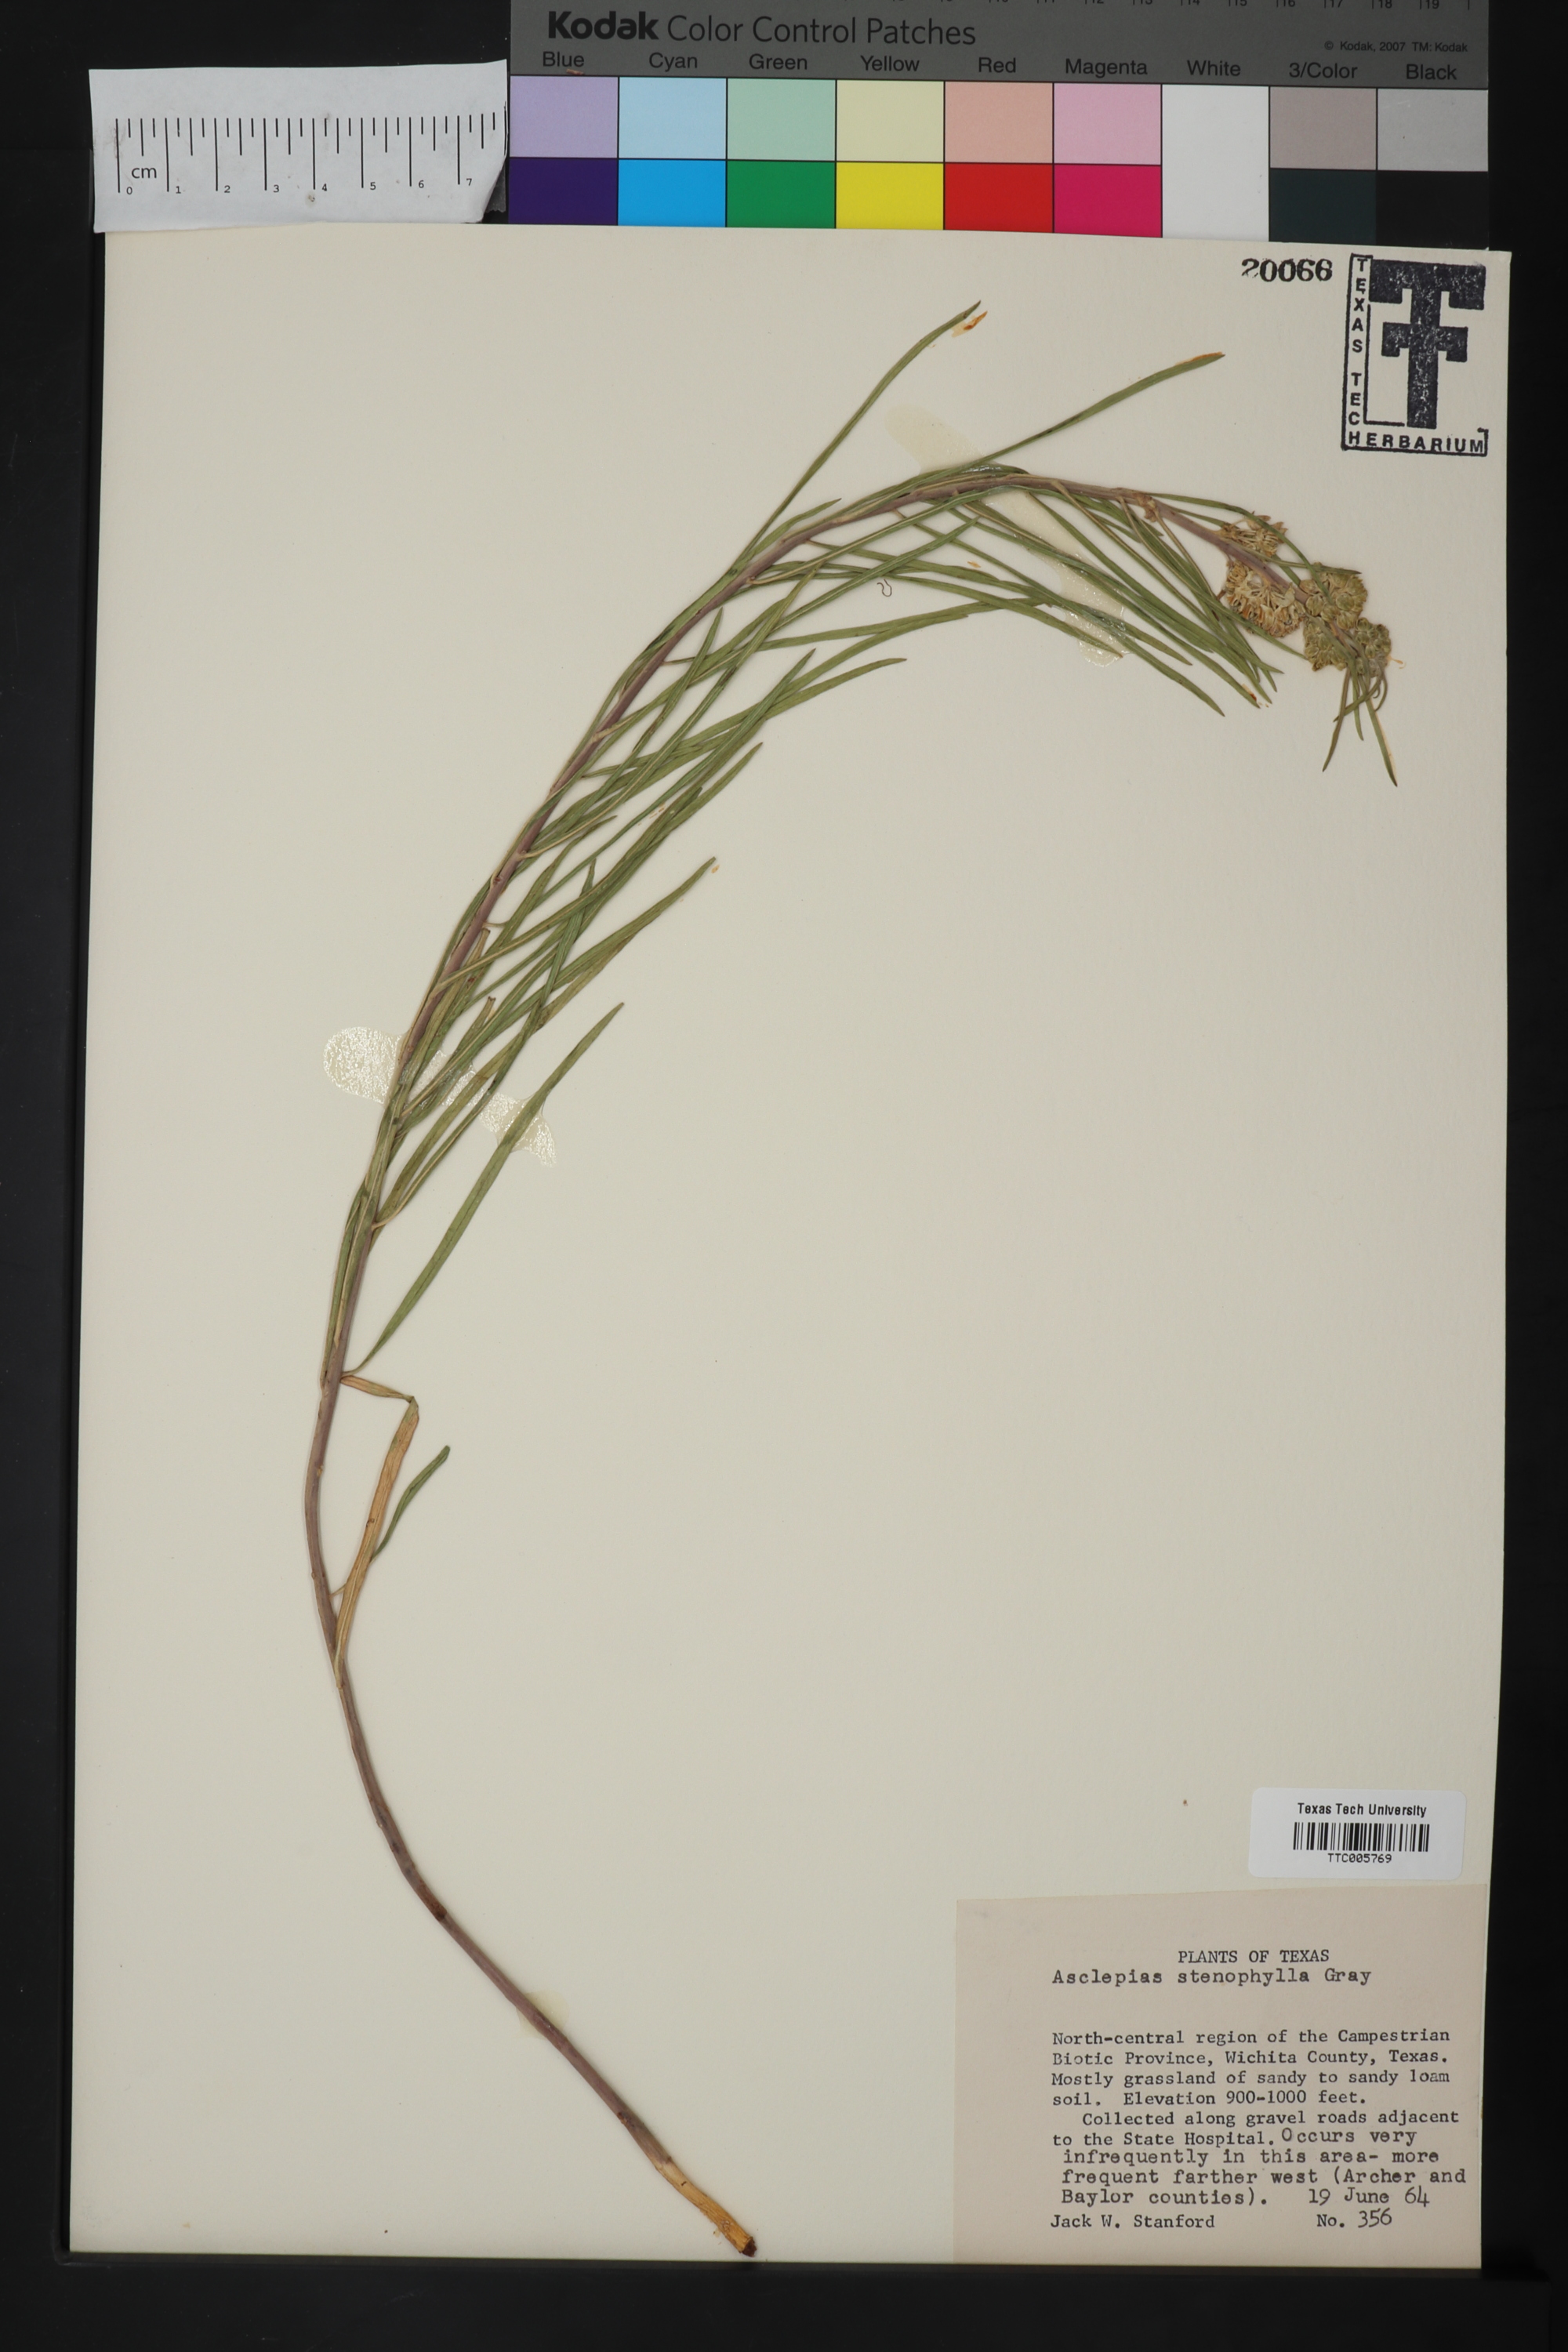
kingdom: Plantae
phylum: Tracheophyta
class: Magnoliopsida
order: Gentianales
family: Apocynaceae
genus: Asclepias
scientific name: Asclepias stenophylla
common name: Narrow-leaf milkweed
